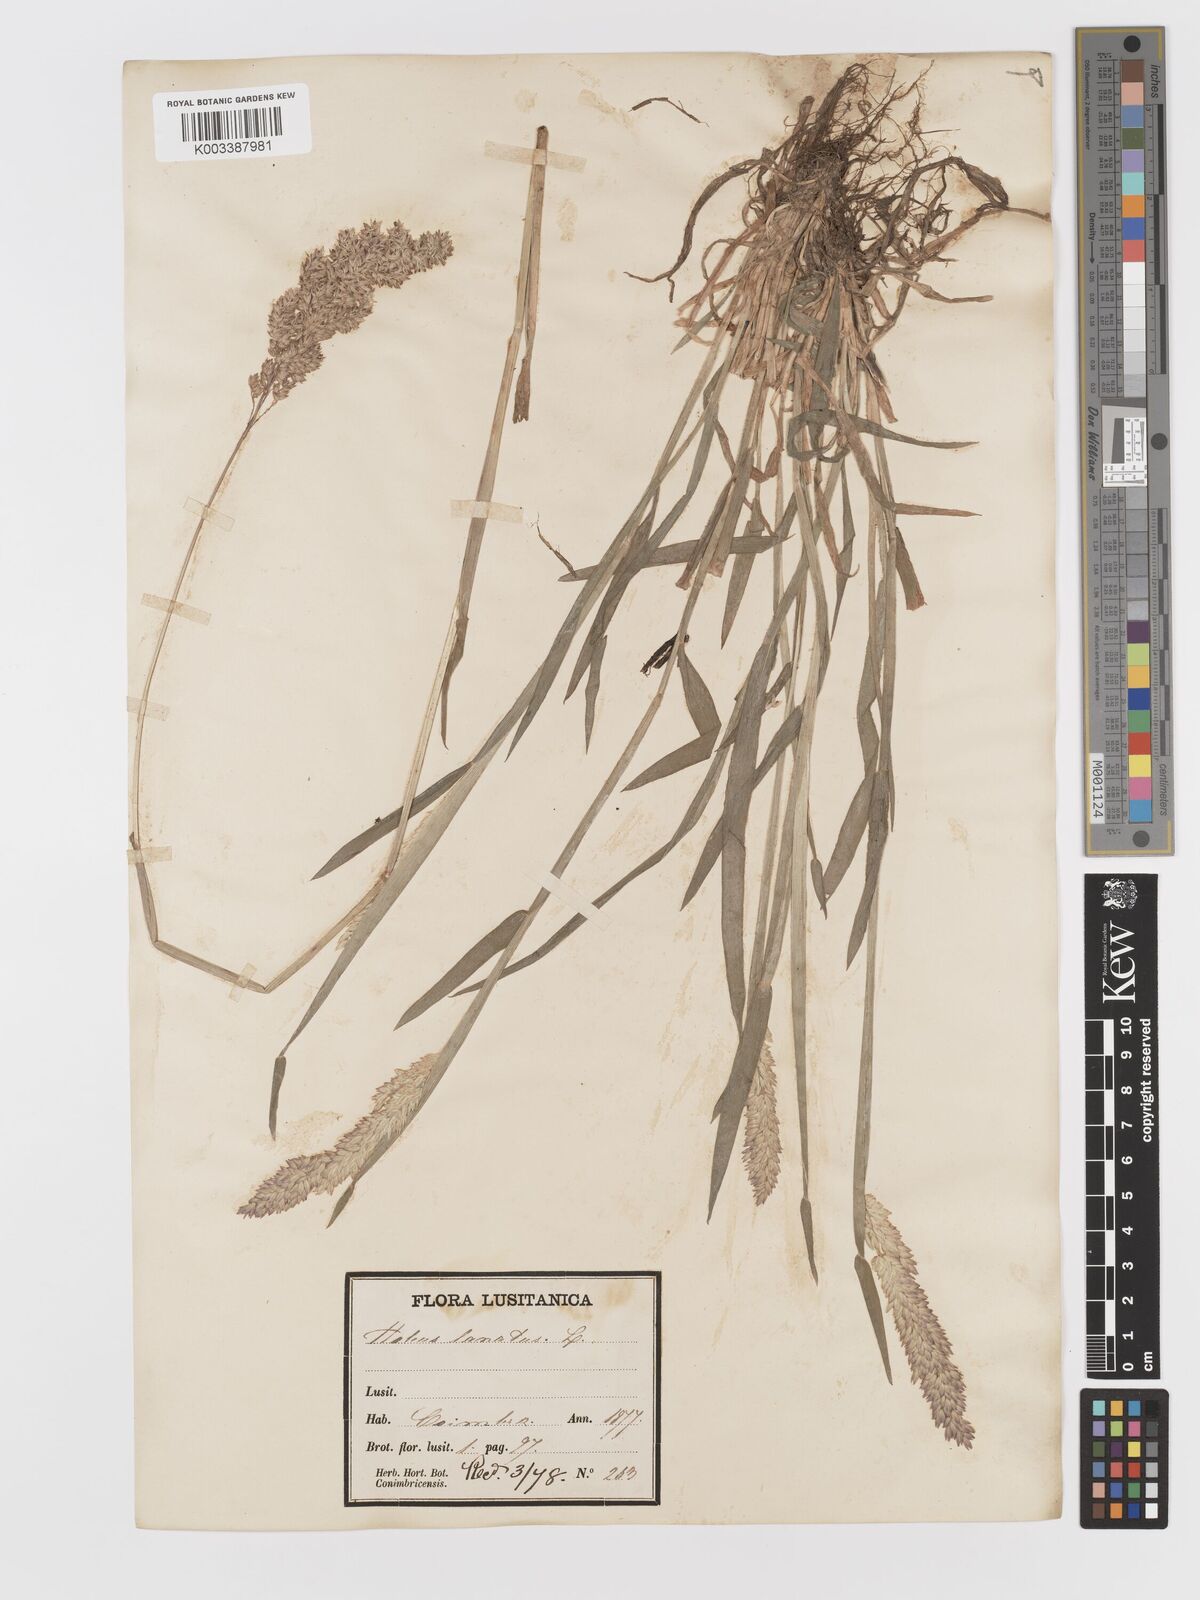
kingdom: Plantae
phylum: Tracheophyta
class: Liliopsida
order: Poales
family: Poaceae
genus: Holcus
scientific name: Holcus lanatus
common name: Yorkshire-fog
